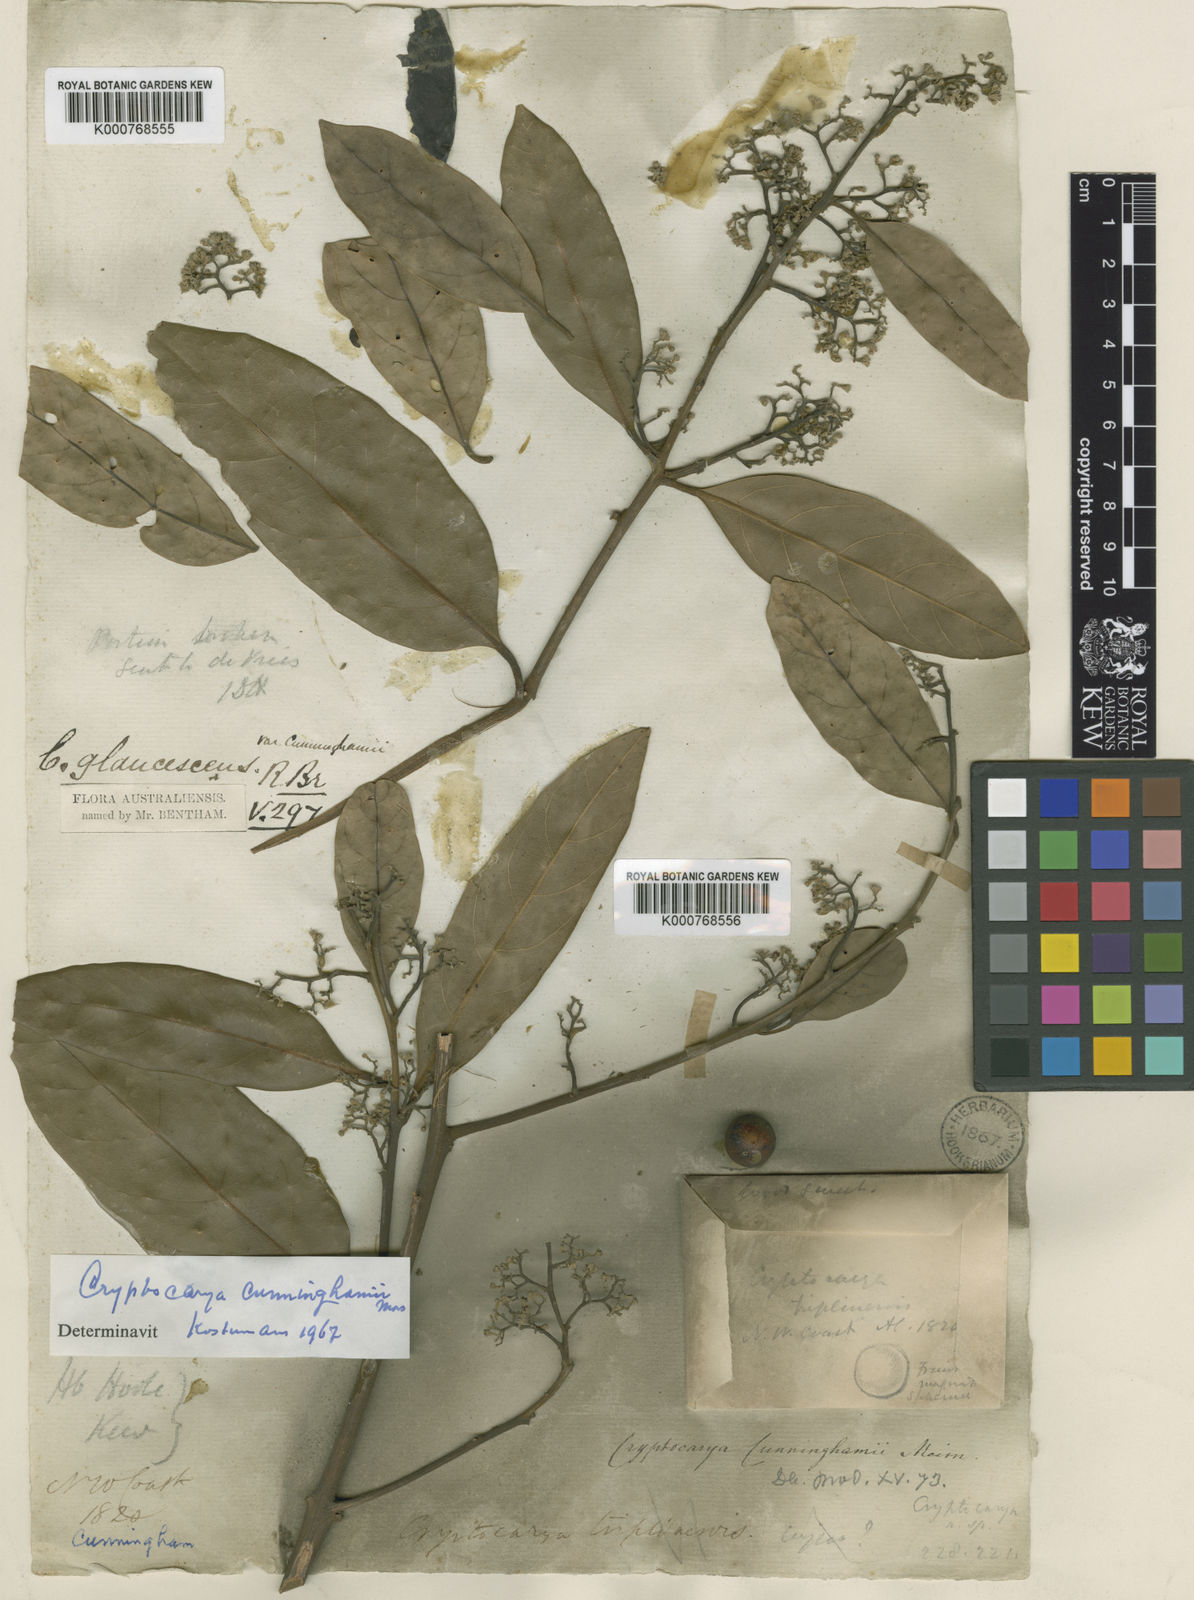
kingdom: Plantae
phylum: Tracheophyta
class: Magnoliopsida
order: Laurales
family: Lauraceae
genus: Cryptocarya
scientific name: Cryptocarya cunninghamii
